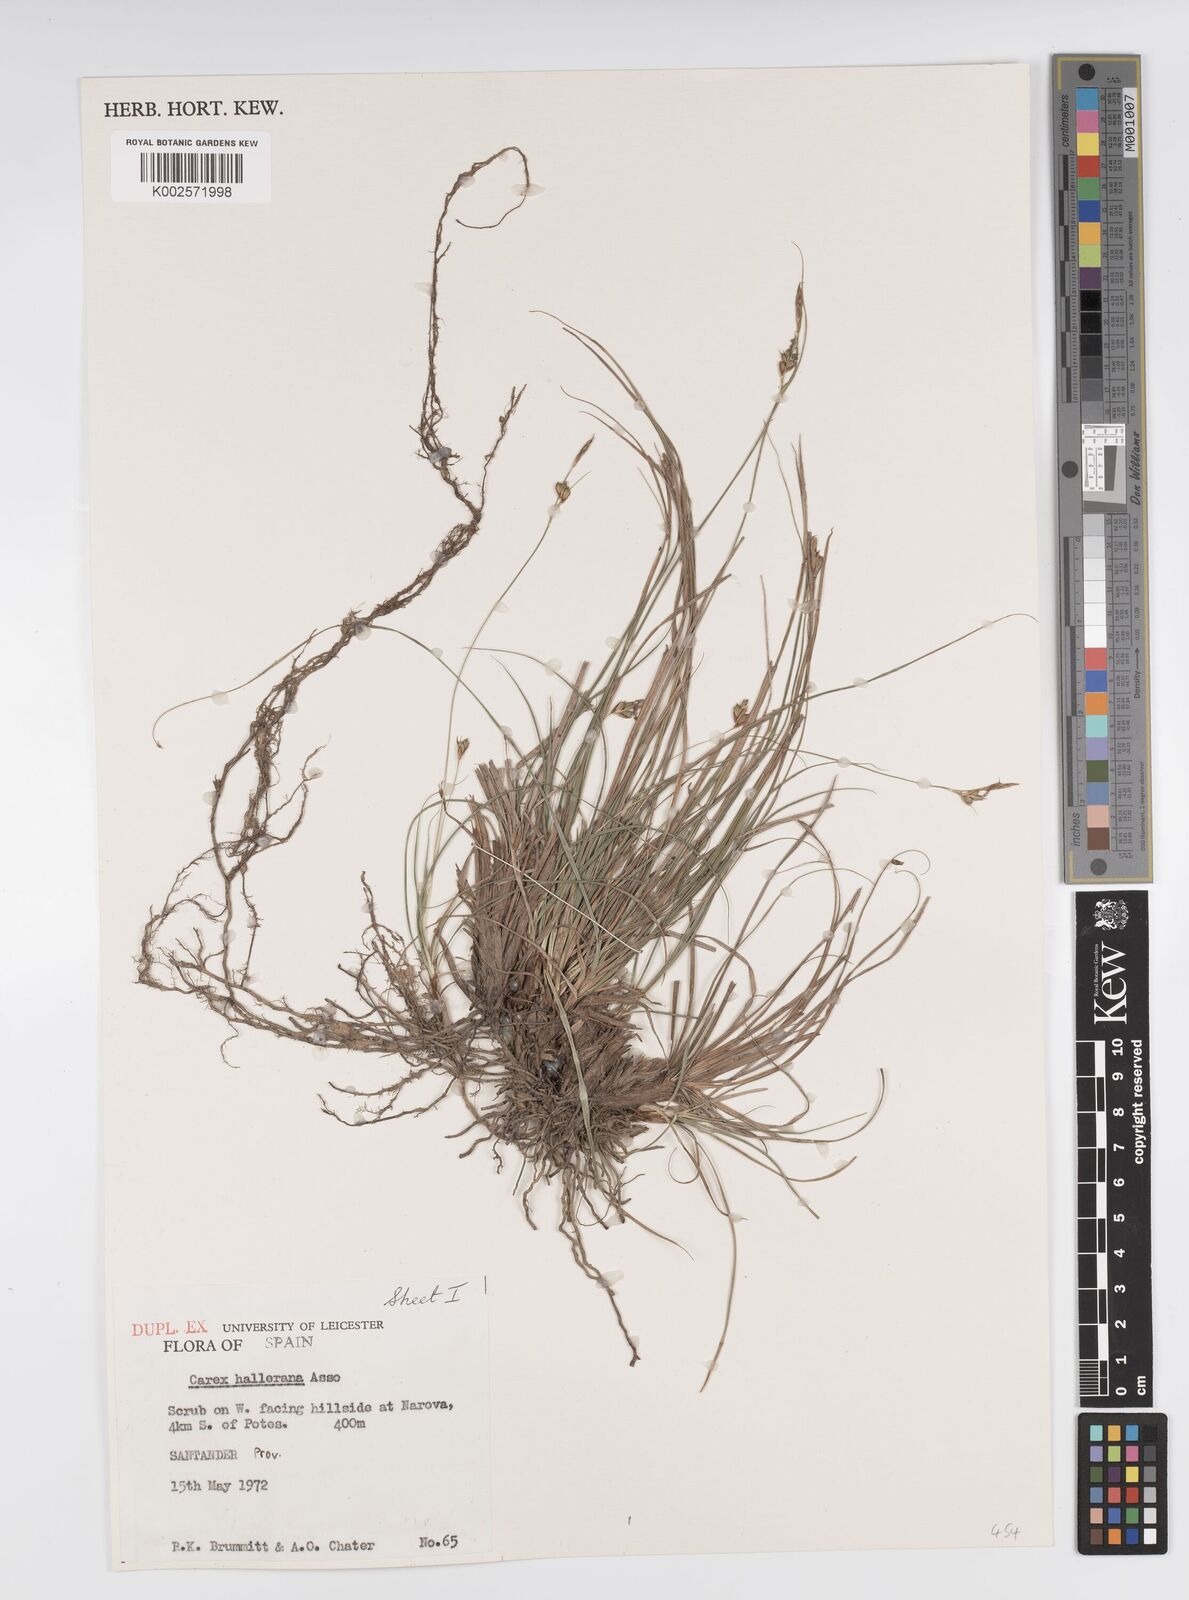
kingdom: Plantae
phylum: Tracheophyta
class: Liliopsida
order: Poales
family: Cyperaceae
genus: Carex
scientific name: Carex halleriana
